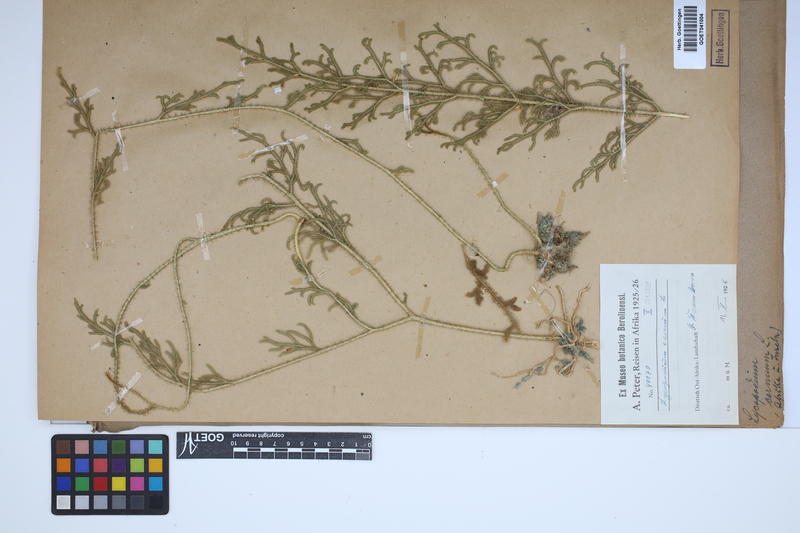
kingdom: Plantae
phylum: Tracheophyta
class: Lycopodiopsida
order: Lycopodiales
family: Lycopodiaceae
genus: Palhinhaea
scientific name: Palhinhaea cernua
